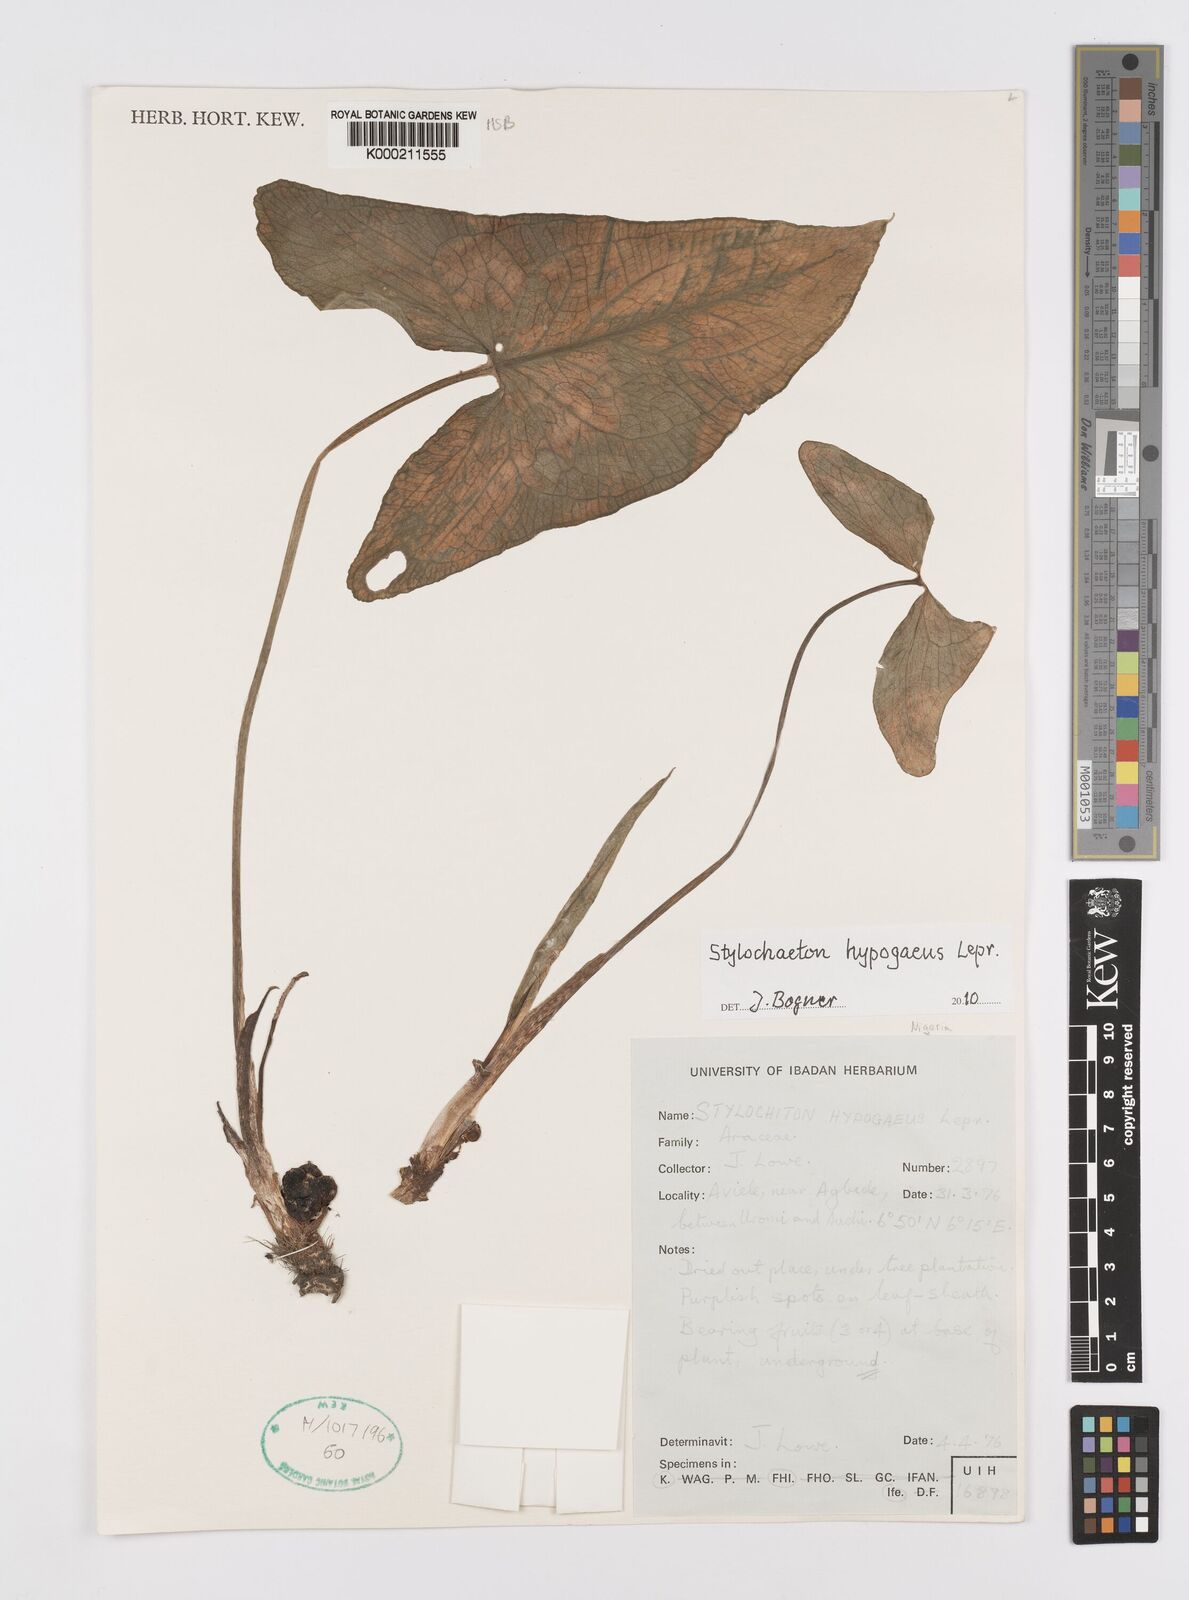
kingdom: Plantae
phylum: Tracheophyta
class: Liliopsida
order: Alismatales
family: Araceae
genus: Stylochaeton
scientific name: Stylochaeton
